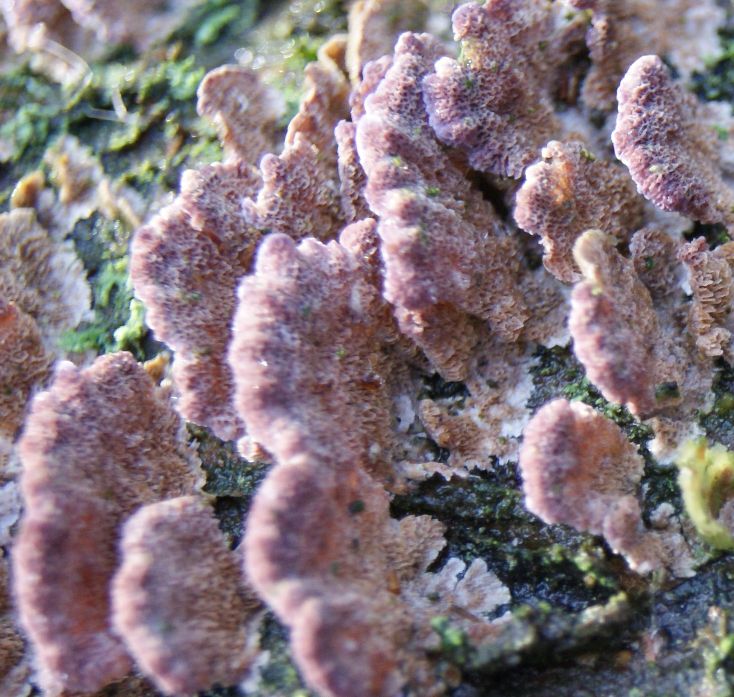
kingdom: Fungi
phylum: Basidiomycota
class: Agaricomycetes
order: Hymenochaetales
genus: Trichaptum
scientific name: Trichaptum abietinum
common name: almindelig violporesvamp
